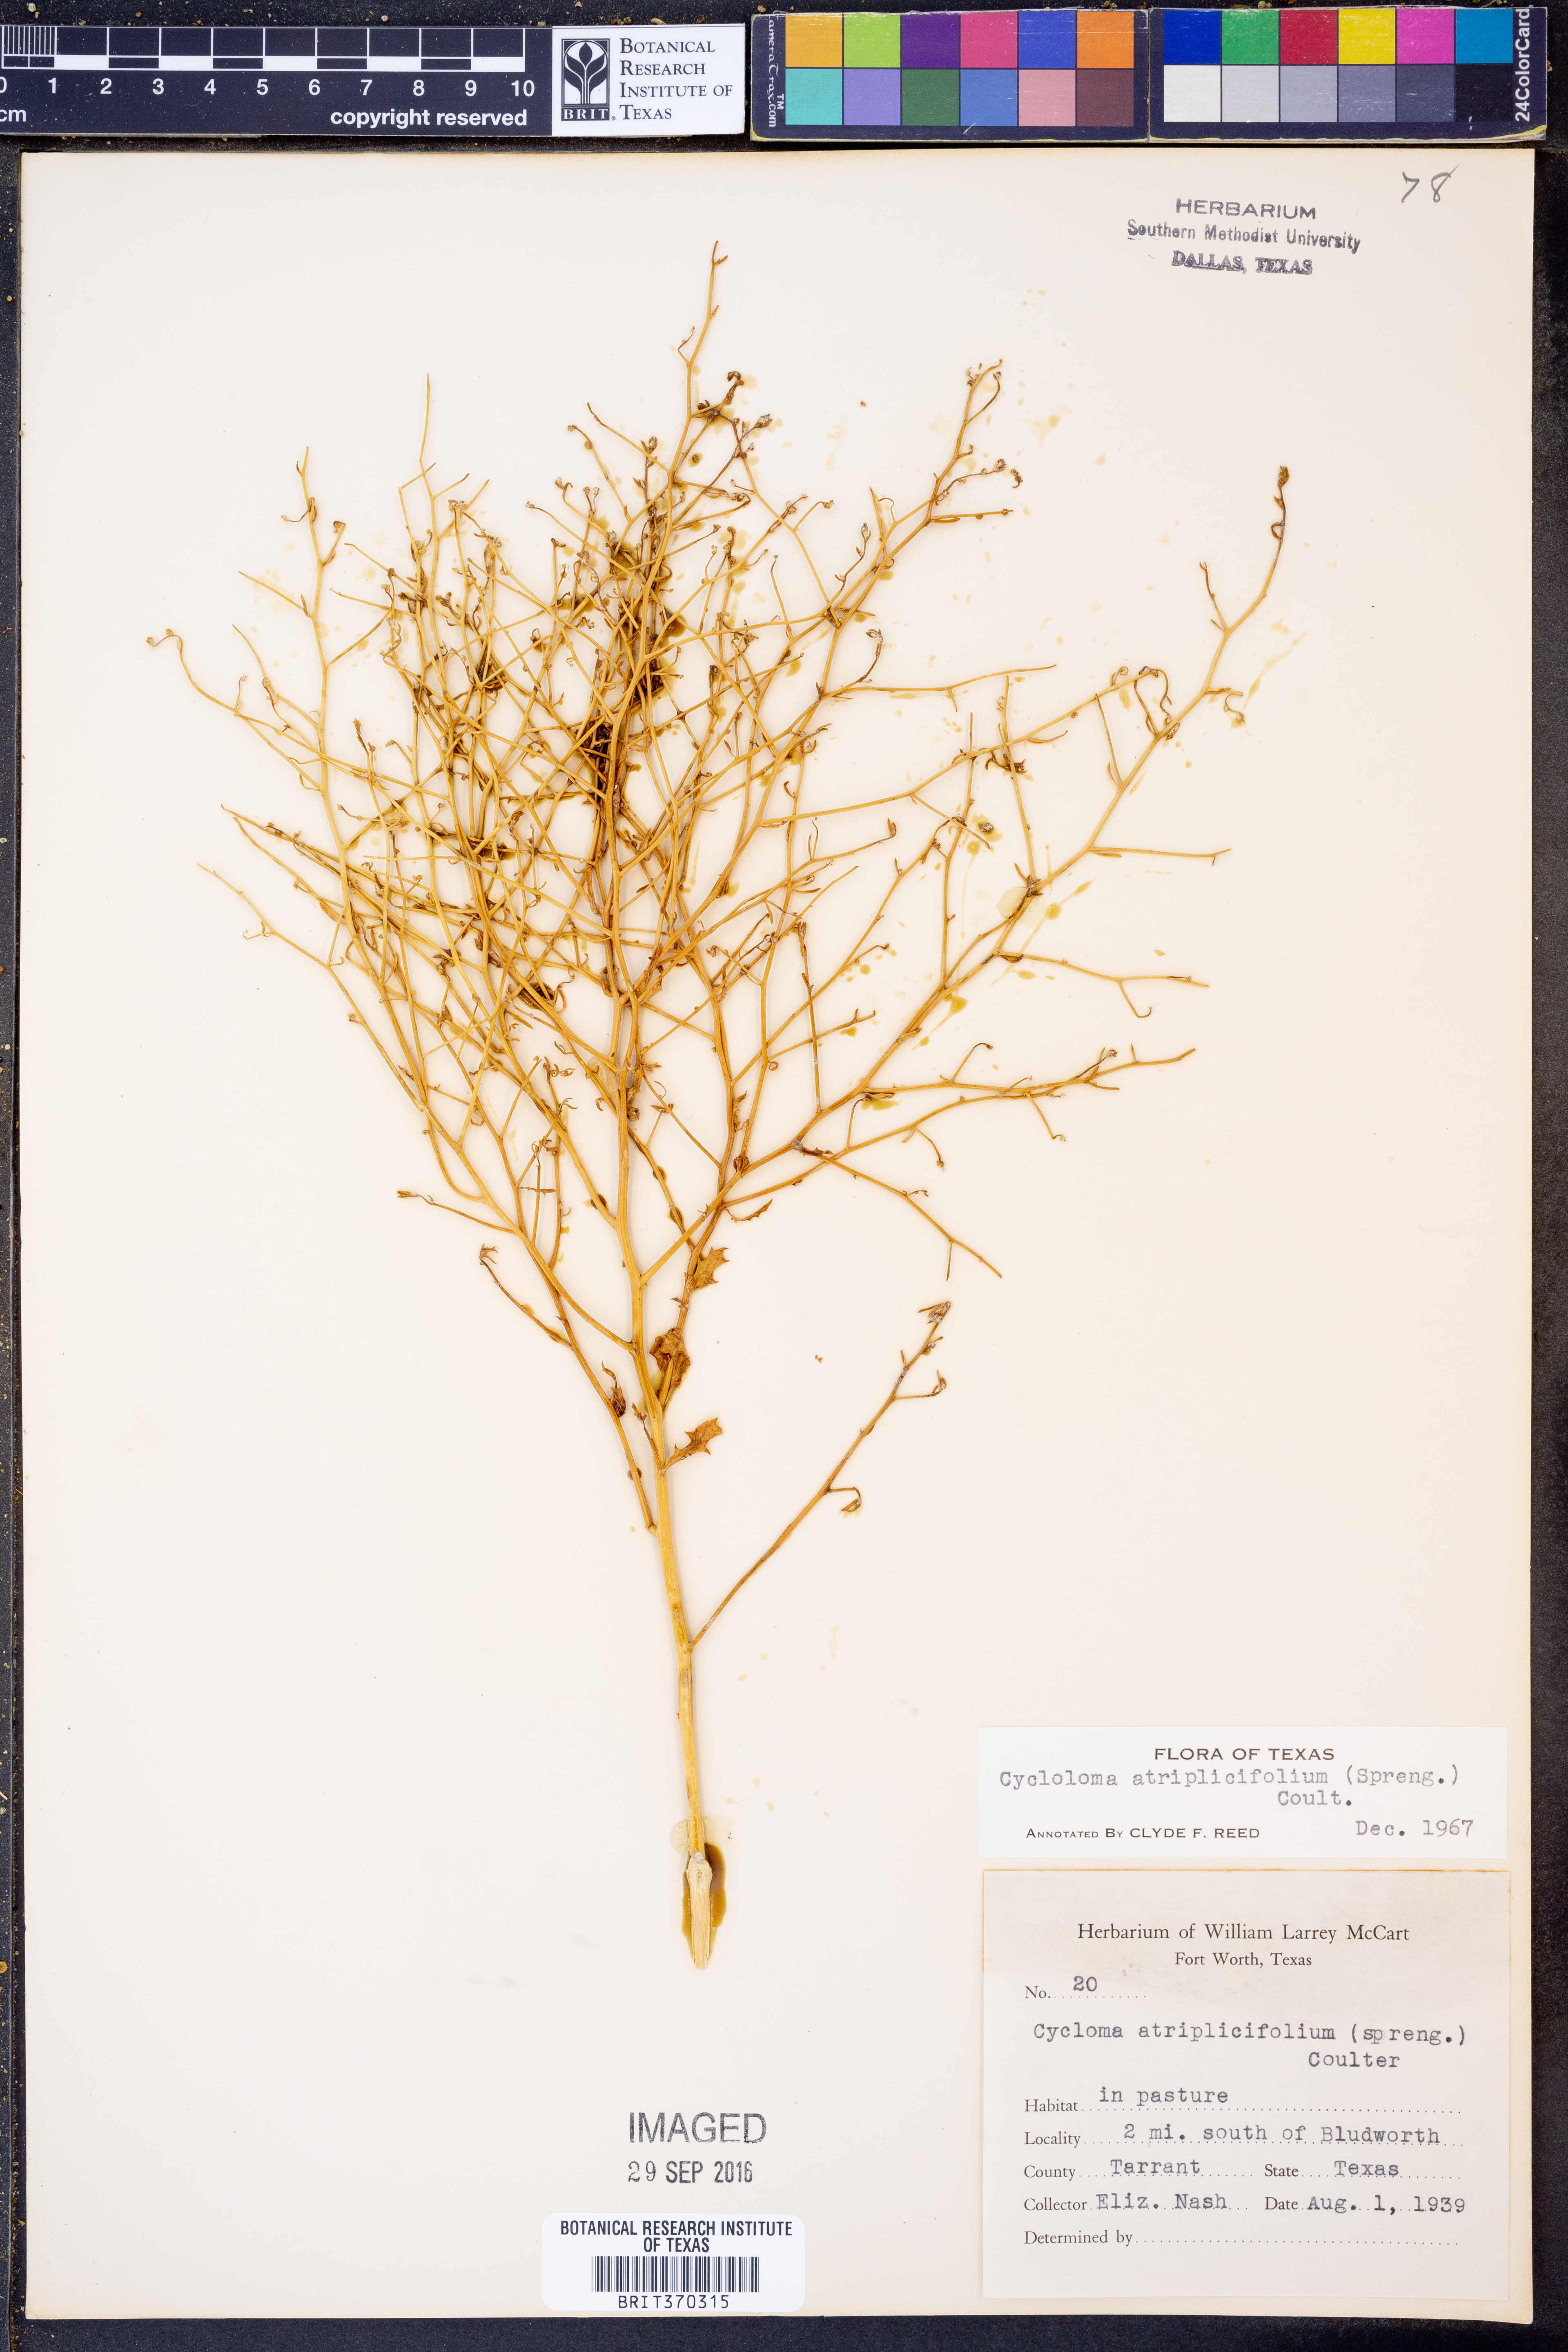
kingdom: Plantae
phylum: Tracheophyta
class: Magnoliopsida
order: Caryophyllales
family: Amaranthaceae
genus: Dysphania
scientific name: Dysphania atriplicifolia
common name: Plains tumbleweed
